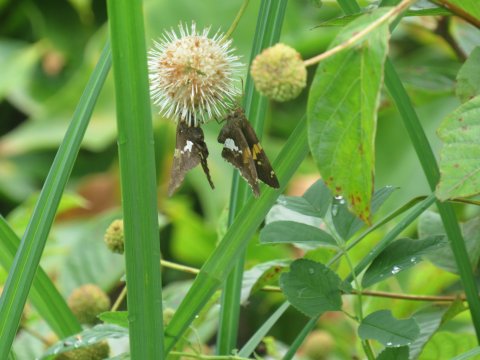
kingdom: Animalia
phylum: Arthropoda
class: Insecta
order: Lepidoptera
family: Hesperiidae
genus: Epargyreus
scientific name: Epargyreus clarus
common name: Silver-spotted Skipper
